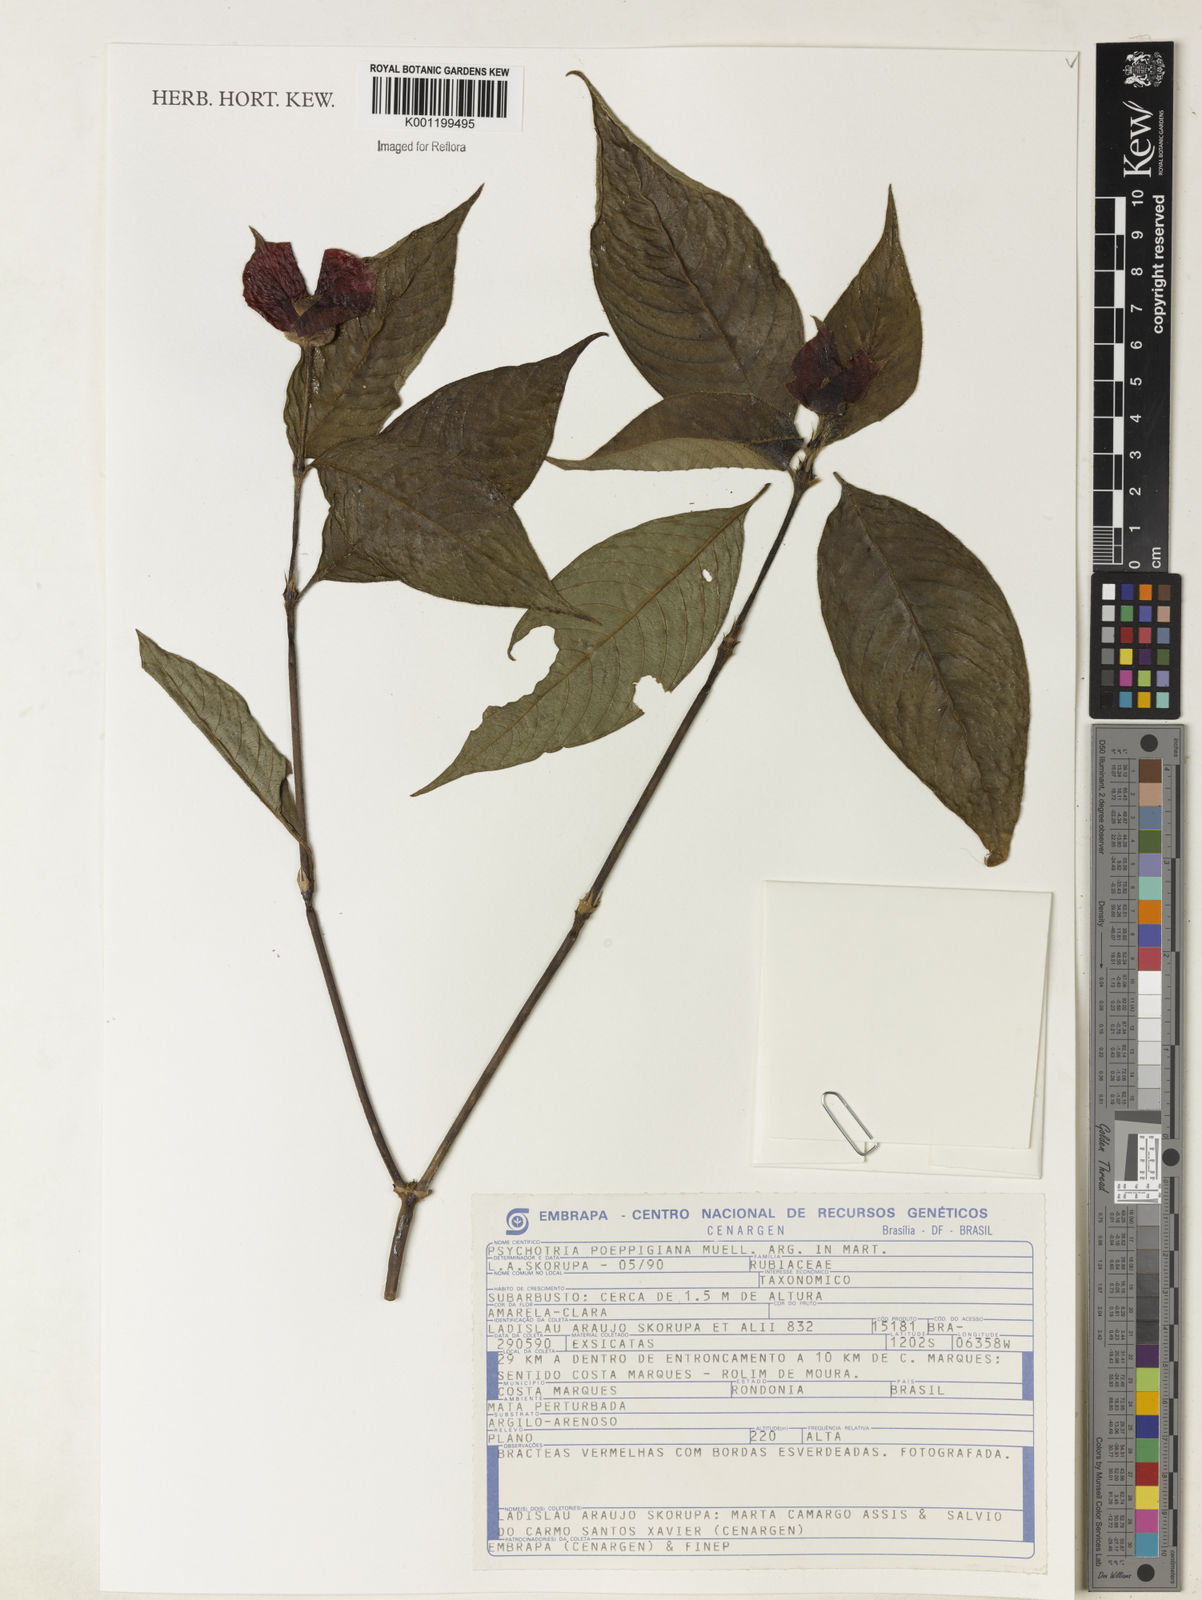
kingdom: Plantae
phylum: Tracheophyta
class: Magnoliopsida
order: Gentianales
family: Rubiaceae
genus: Psychotria
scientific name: Psychotria
